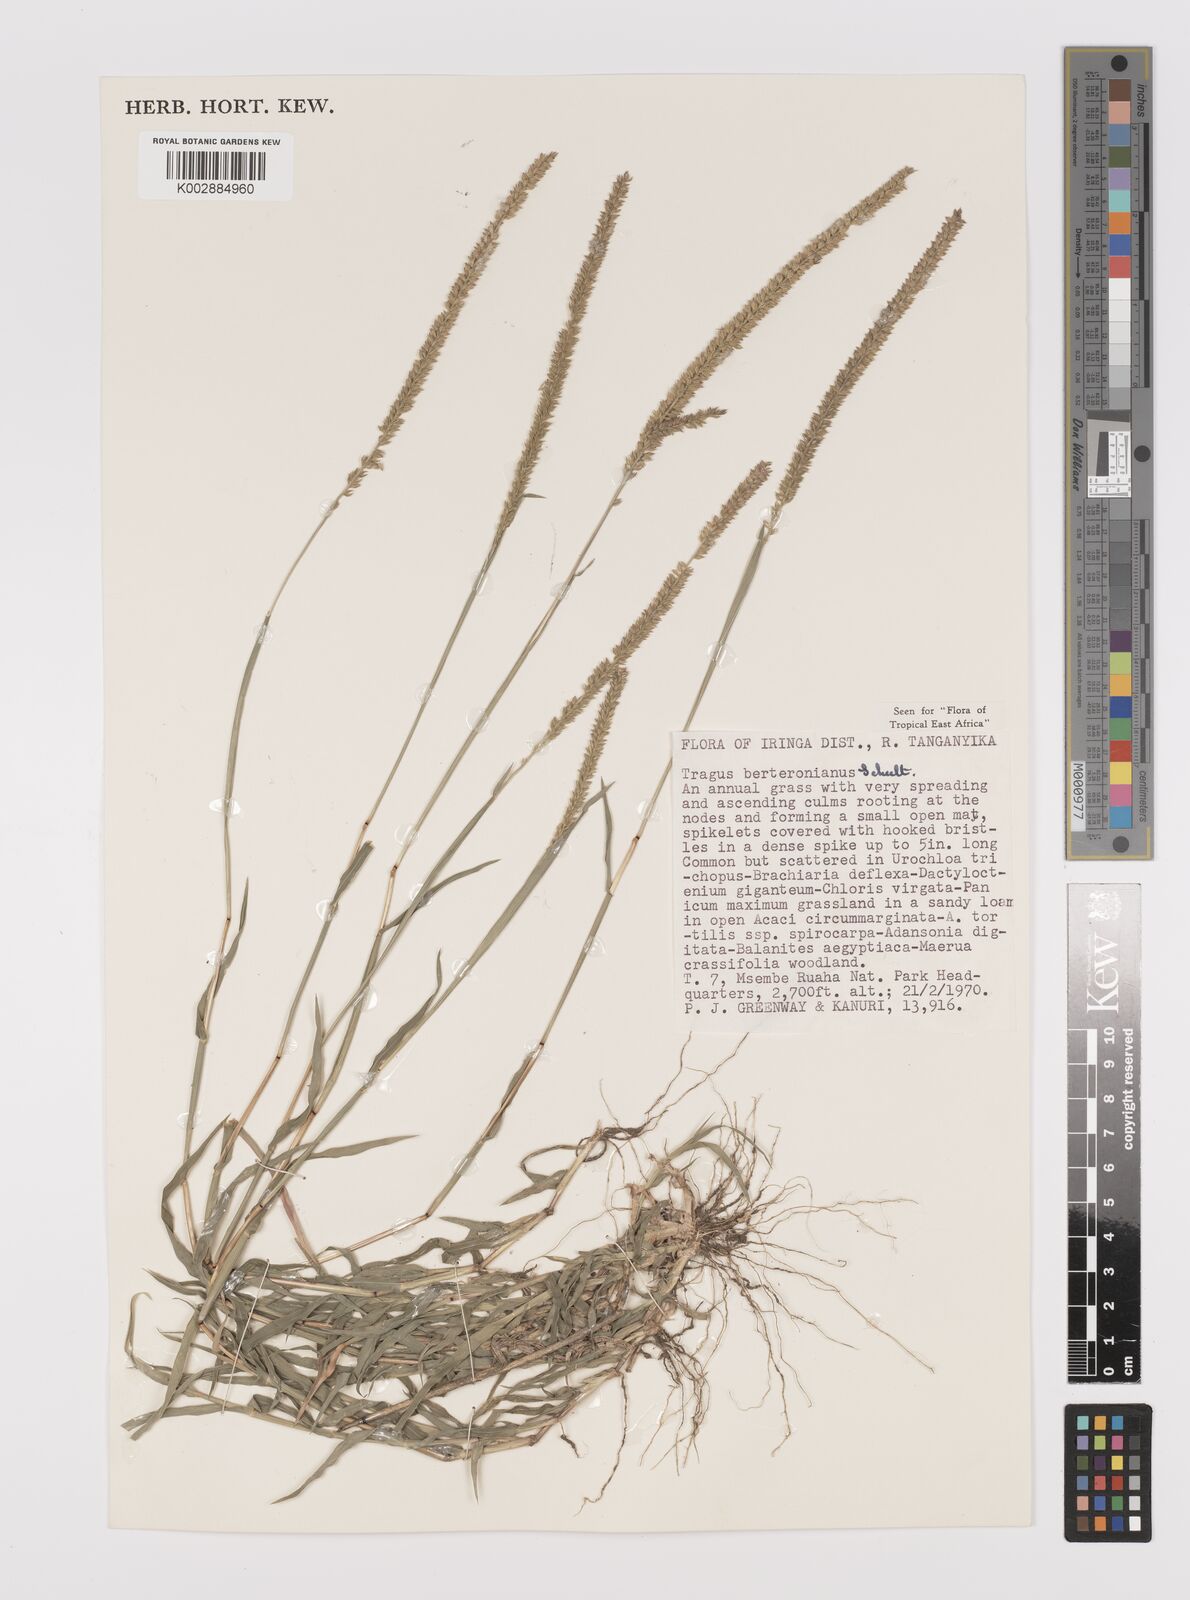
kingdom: Plantae
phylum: Tracheophyta
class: Liliopsida
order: Poales
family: Poaceae
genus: Tragus
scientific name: Tragus berteronianus
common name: African bur-grass
